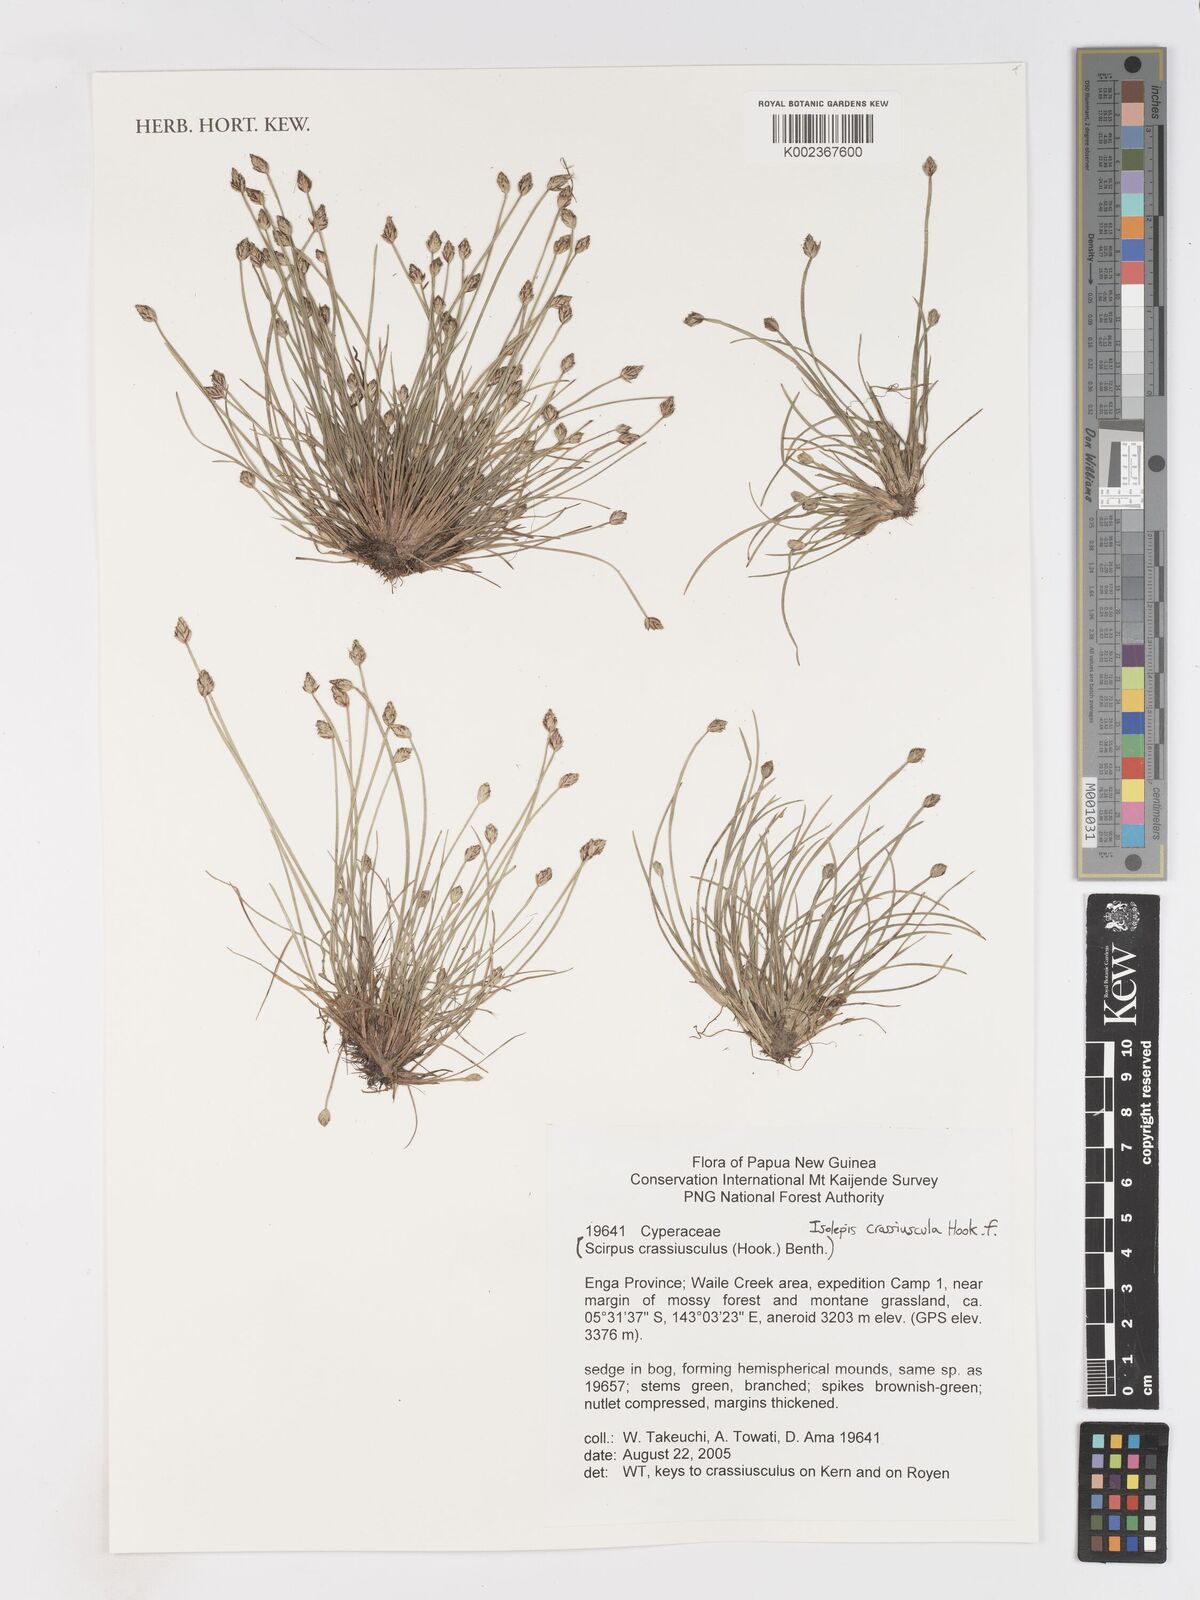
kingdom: Plantae
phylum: Tracheophyta
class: Liliopsida
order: Poales
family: Cyperaceae
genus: Isolepis
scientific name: Isolepis crassiuscula
